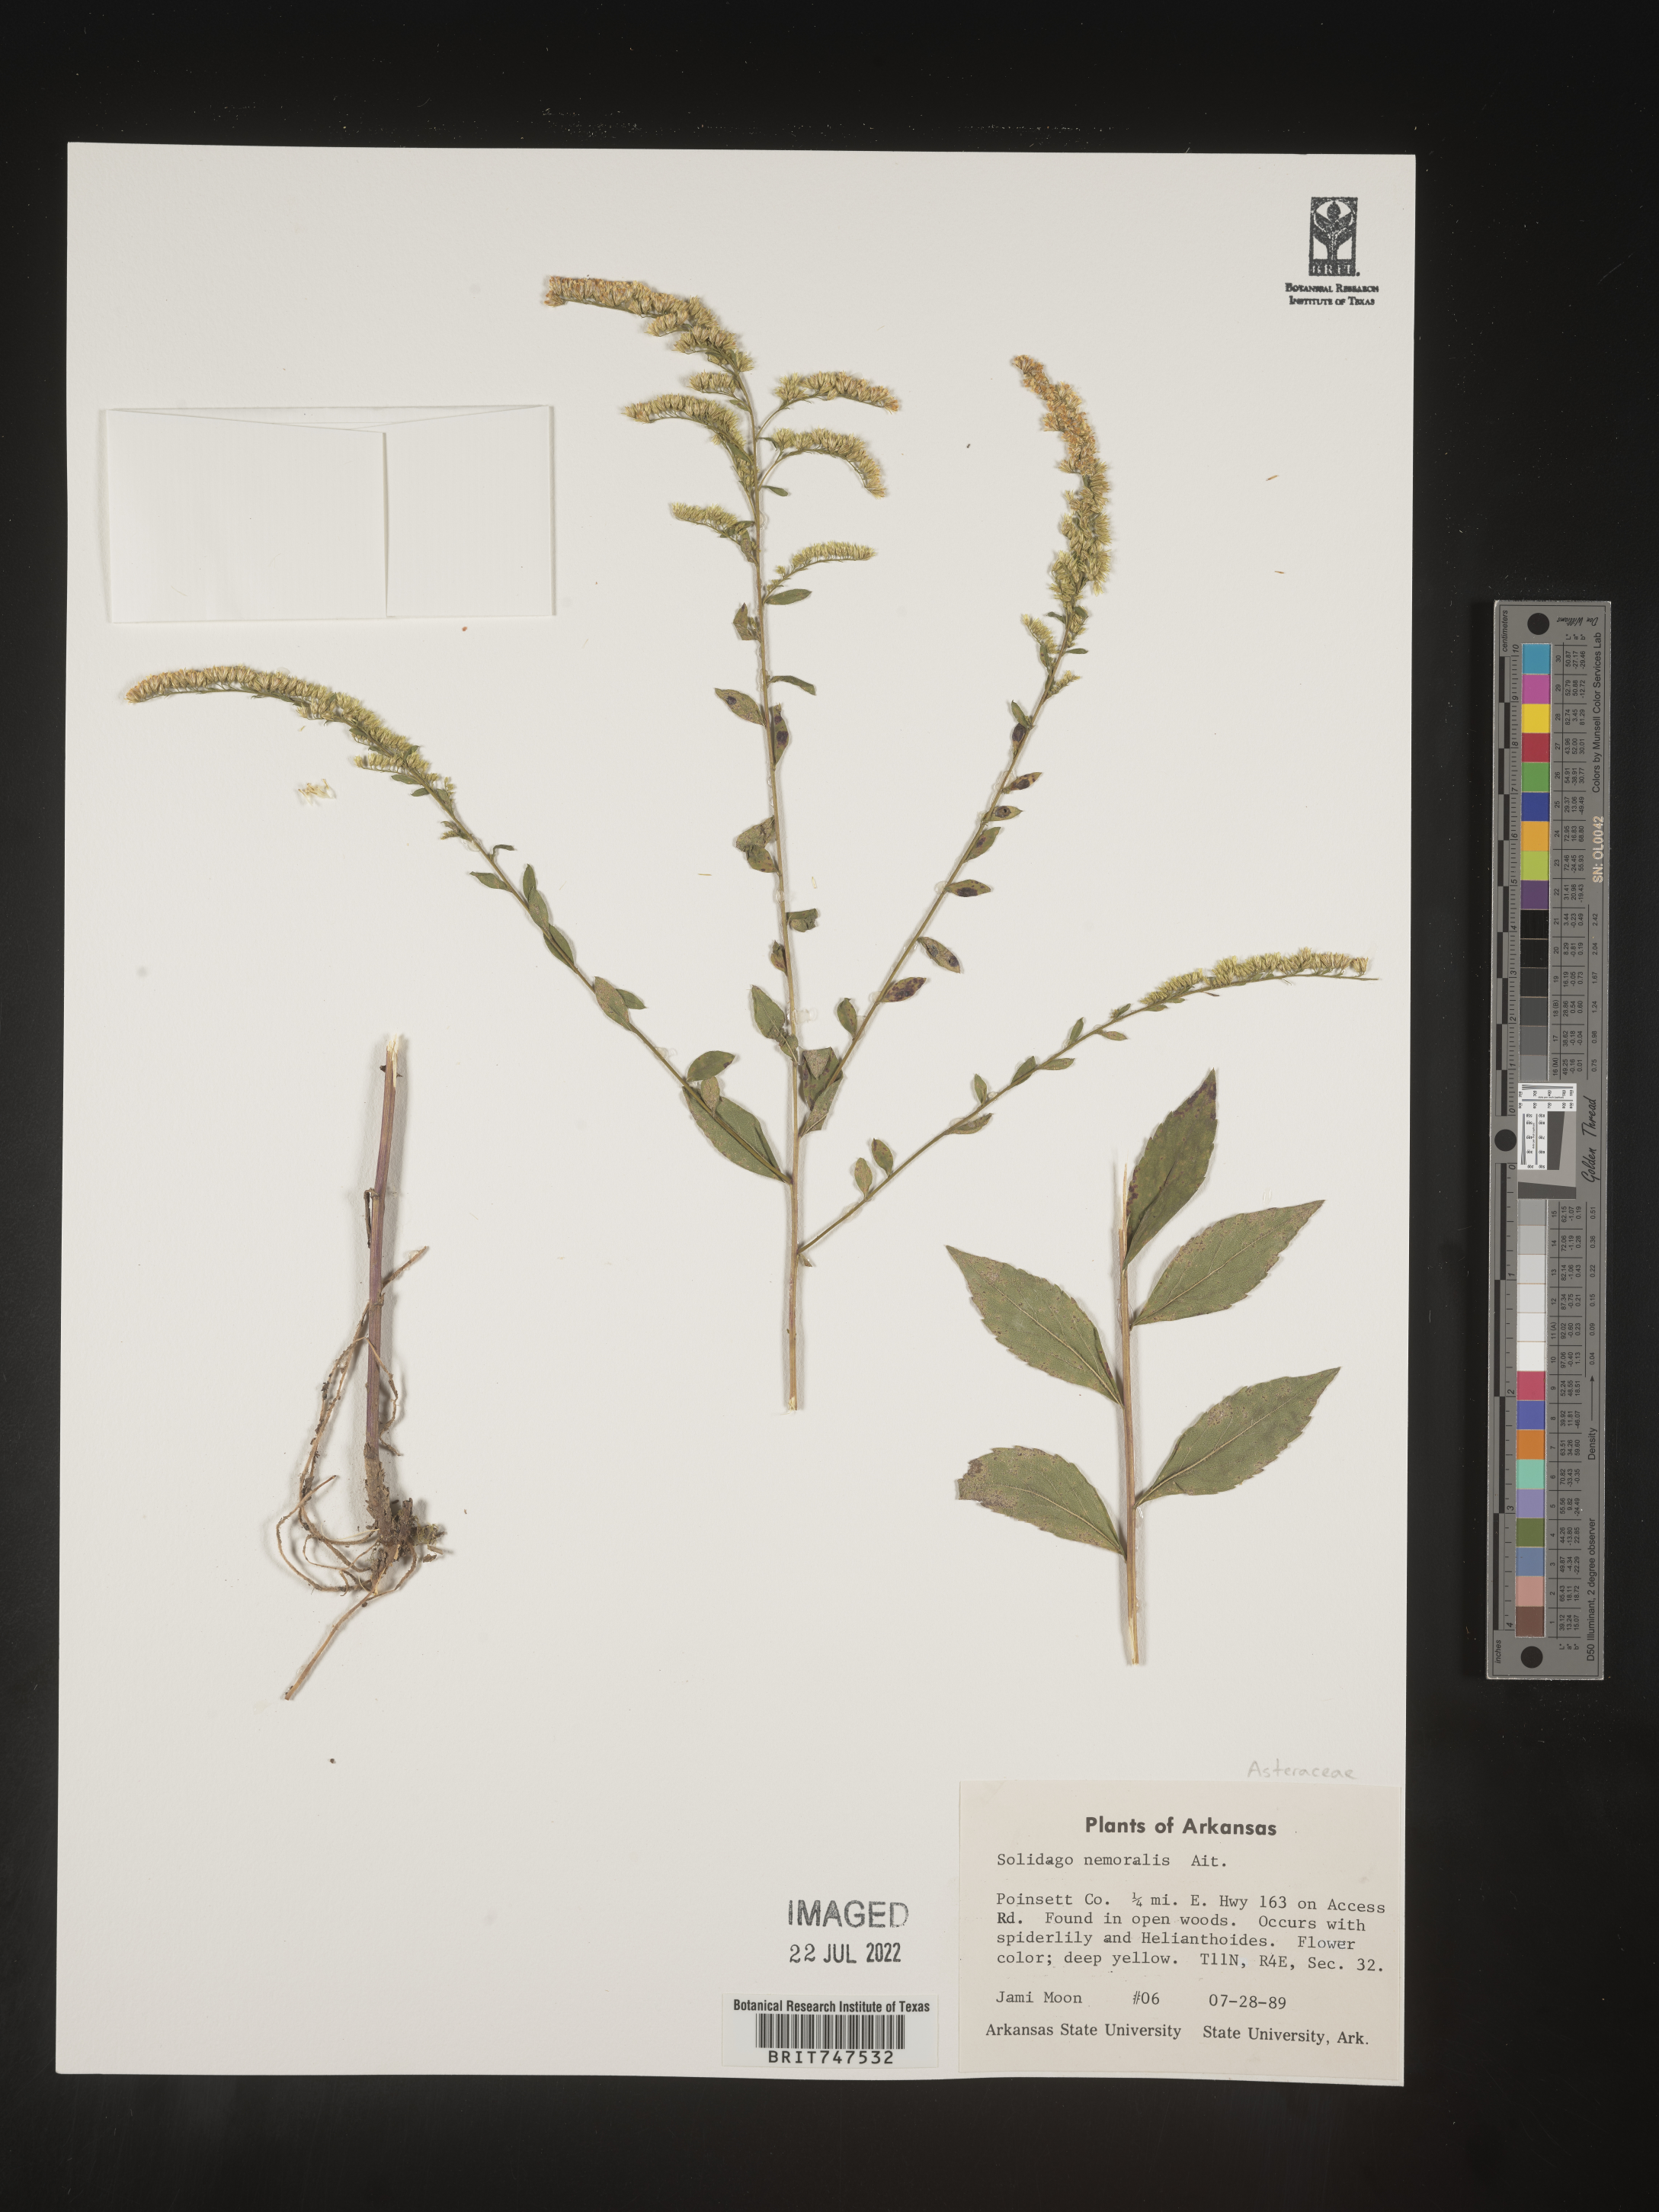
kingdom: Plantae
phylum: Tracheophyta
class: Magnoliopsida
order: Asterales
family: Asteraceae
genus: Solidago
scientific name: Solidago nemoralis
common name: Grey goldenrod
